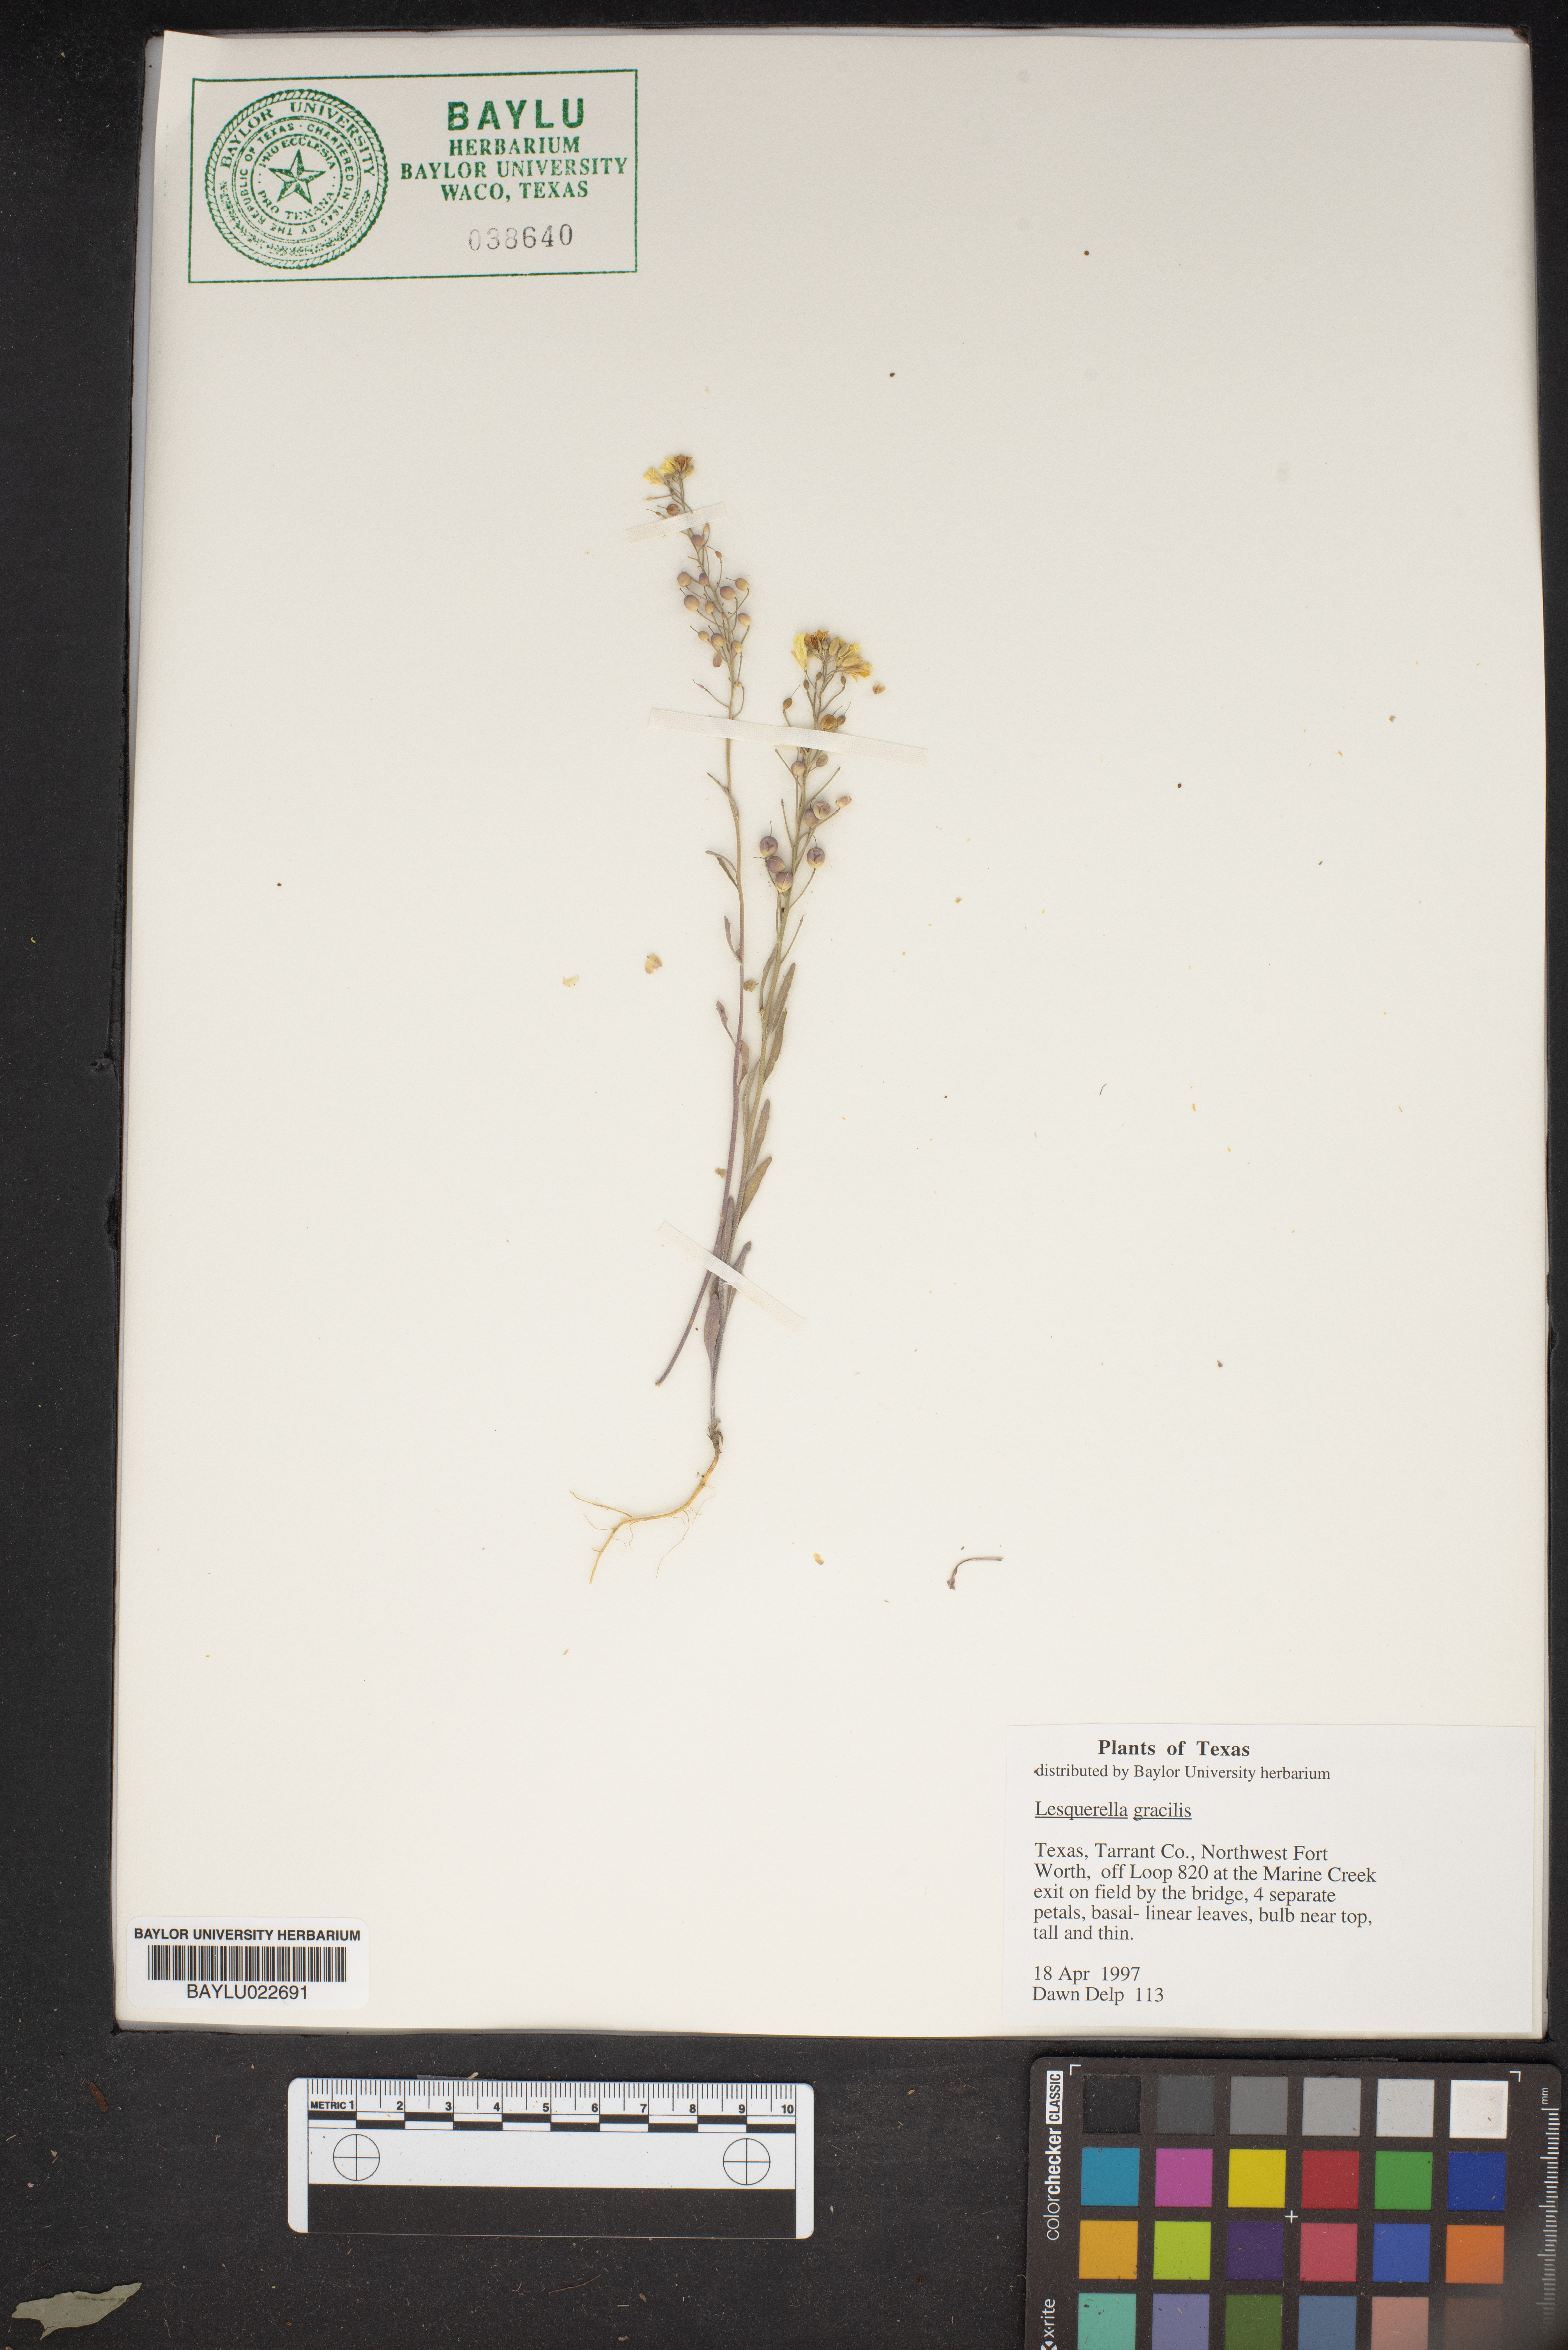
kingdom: Plantae
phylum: Tracheophyta
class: Magnoliopsida
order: Brassicales
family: Brassicaceae
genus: Physaria
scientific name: Physaria gracilis
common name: Spreading bladderpod
